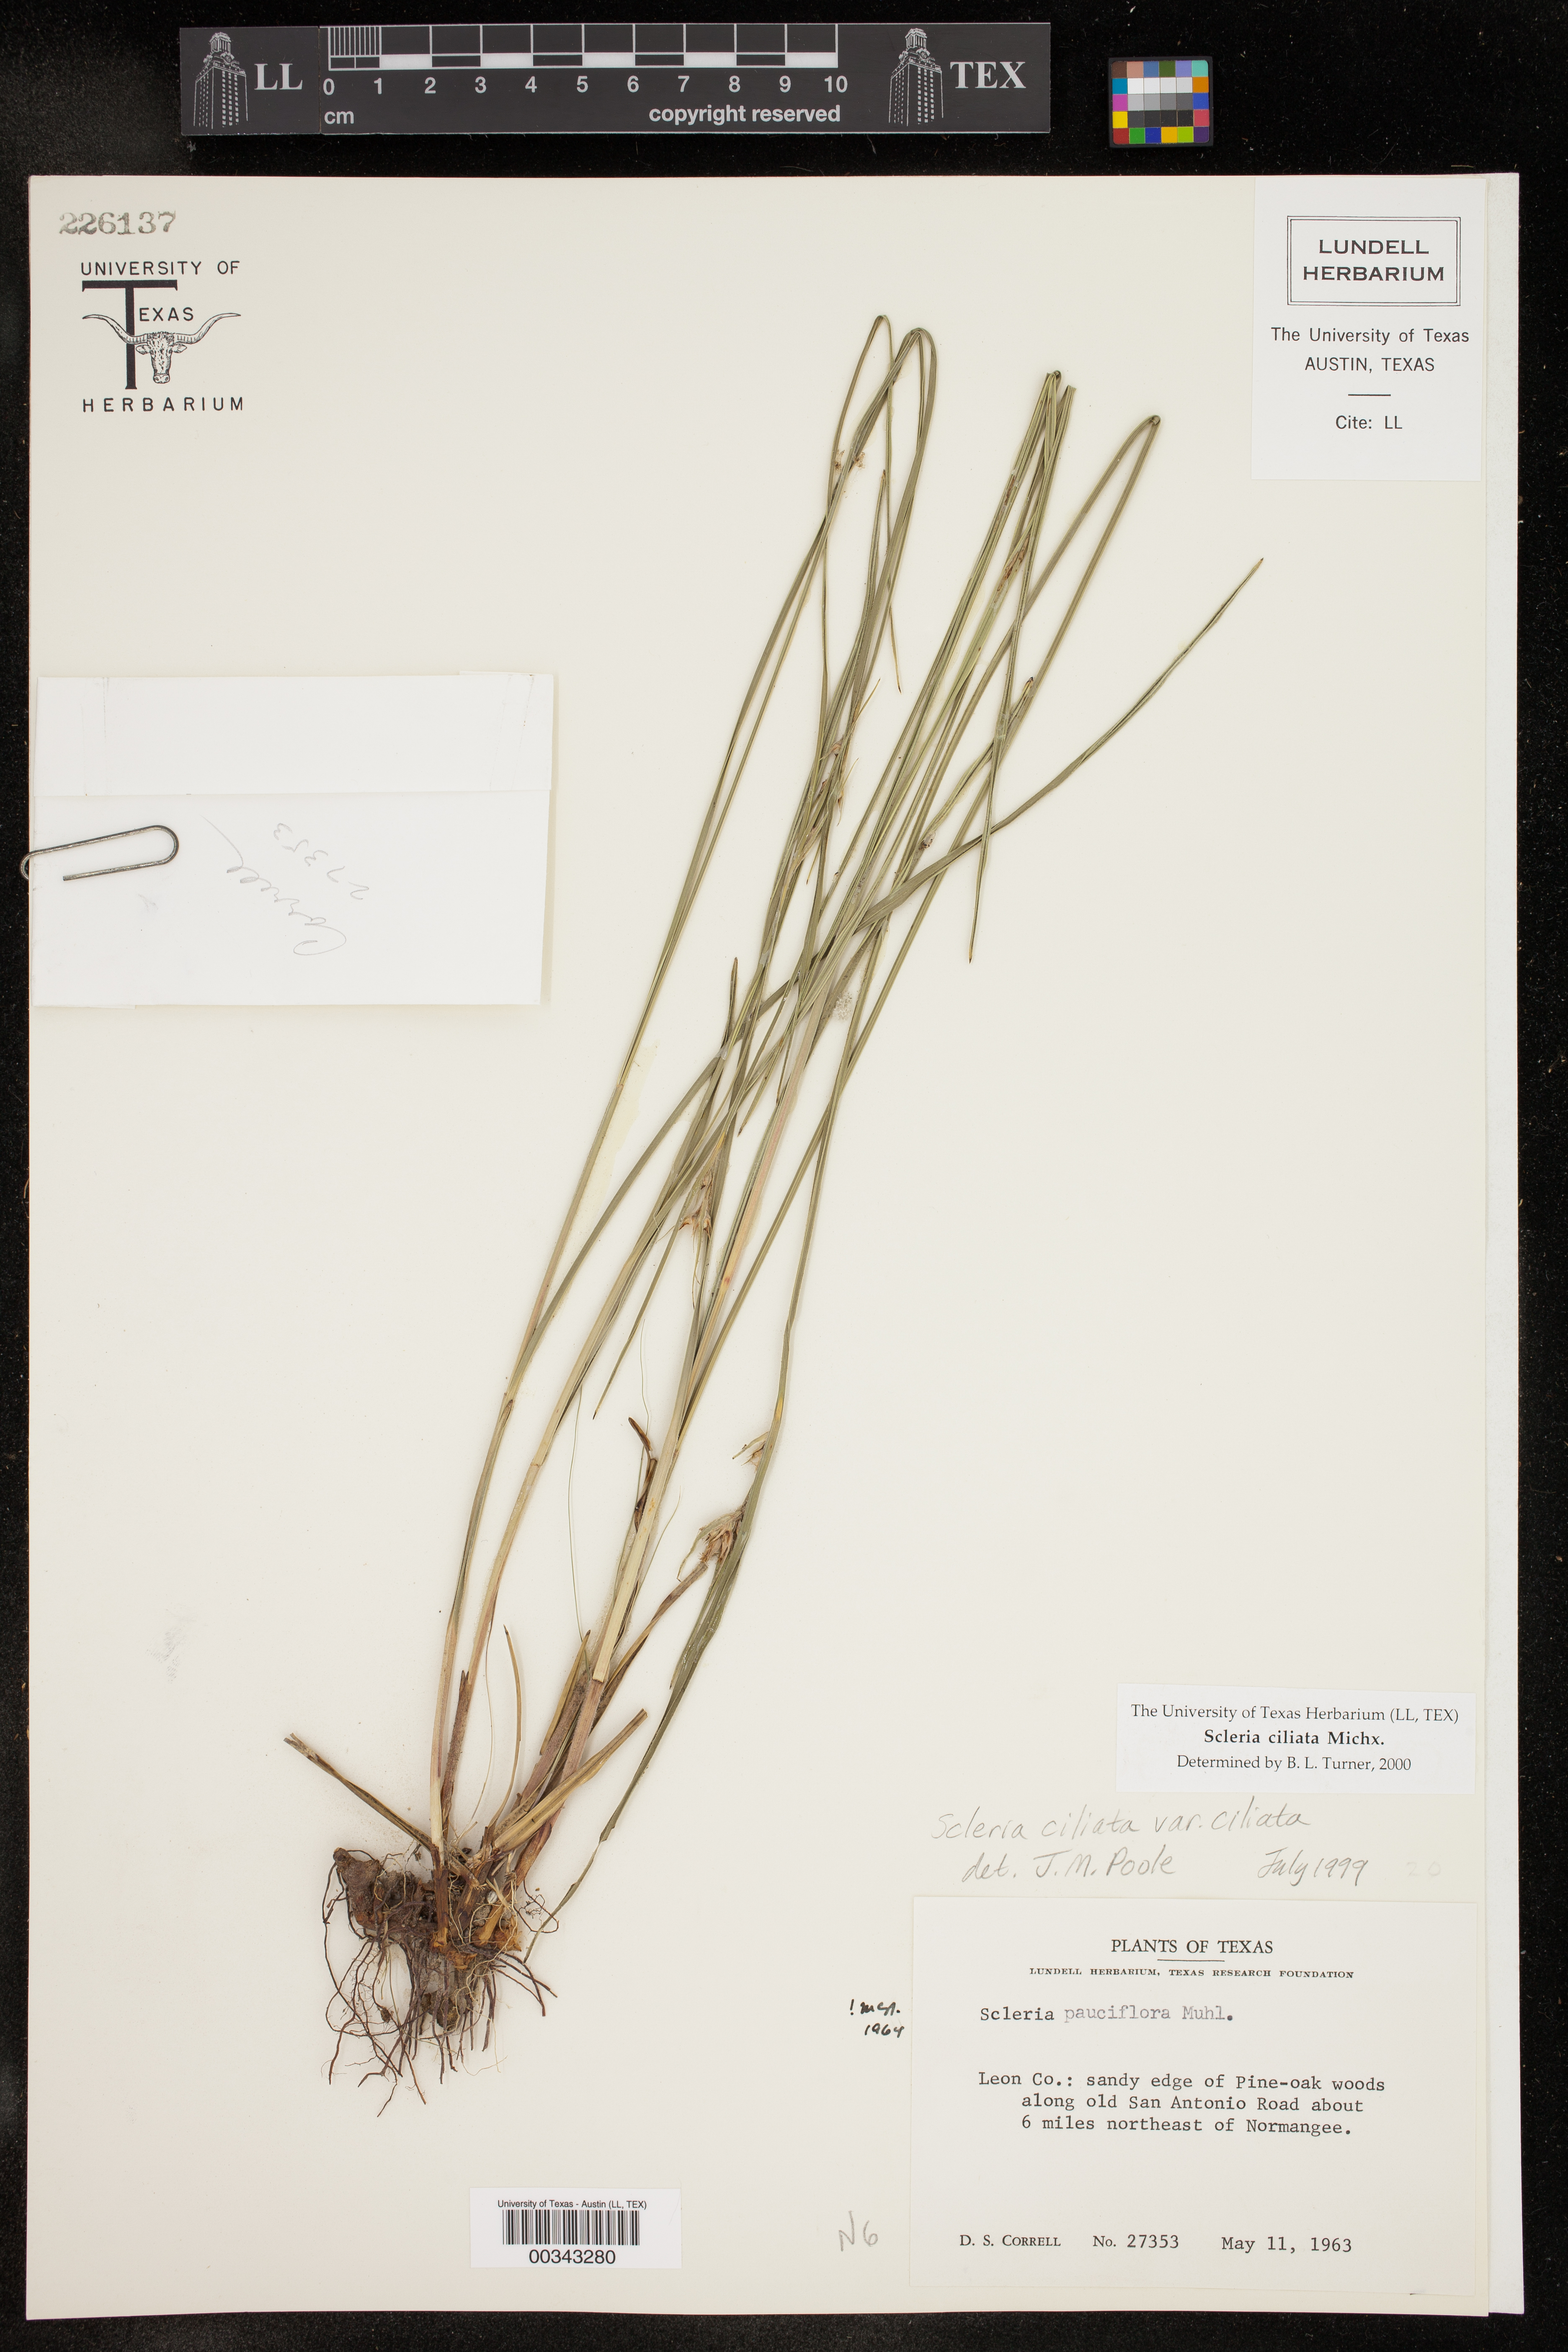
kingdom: Plantae
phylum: Tracheophyta
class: Liliopsida
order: Poales
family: Cyperaceae
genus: Scleria
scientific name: Scleria ciliata
